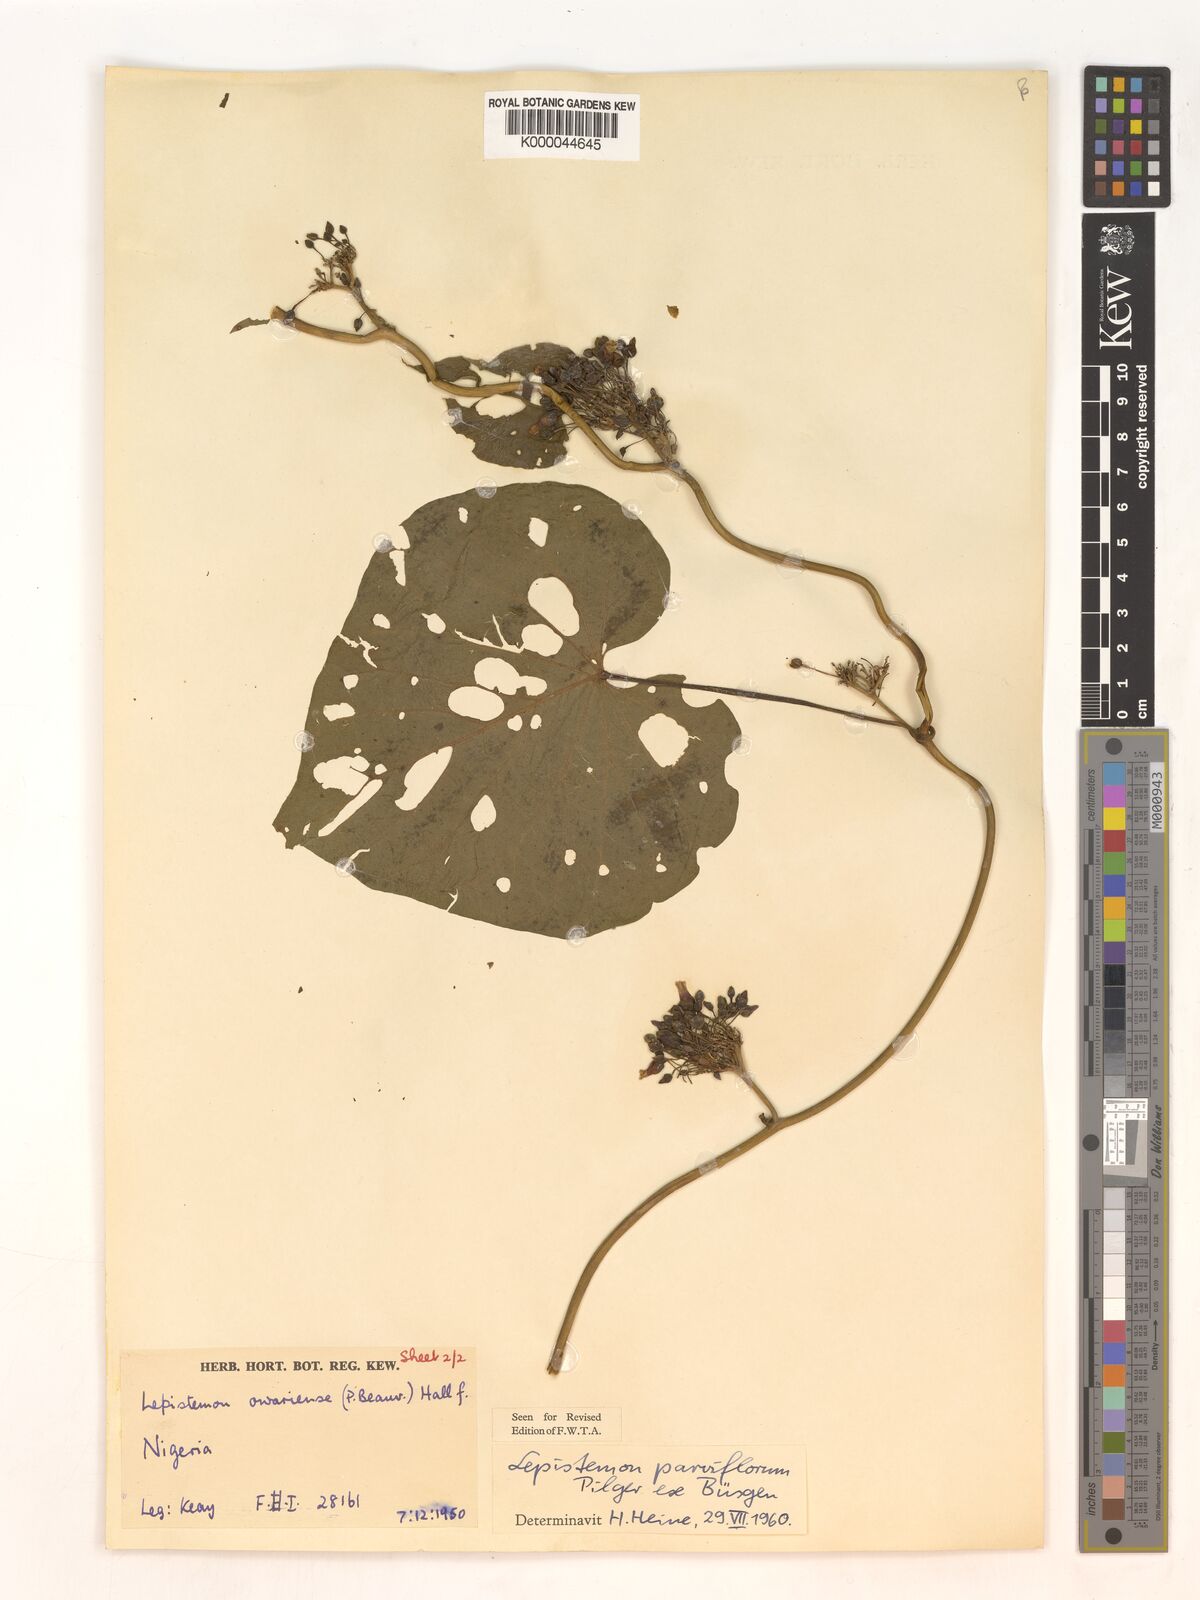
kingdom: Plantae
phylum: Tracheophyta
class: Magnoliopsida
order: Solanales
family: Convolvulaceae
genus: Lepistemon
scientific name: Lepistemon
